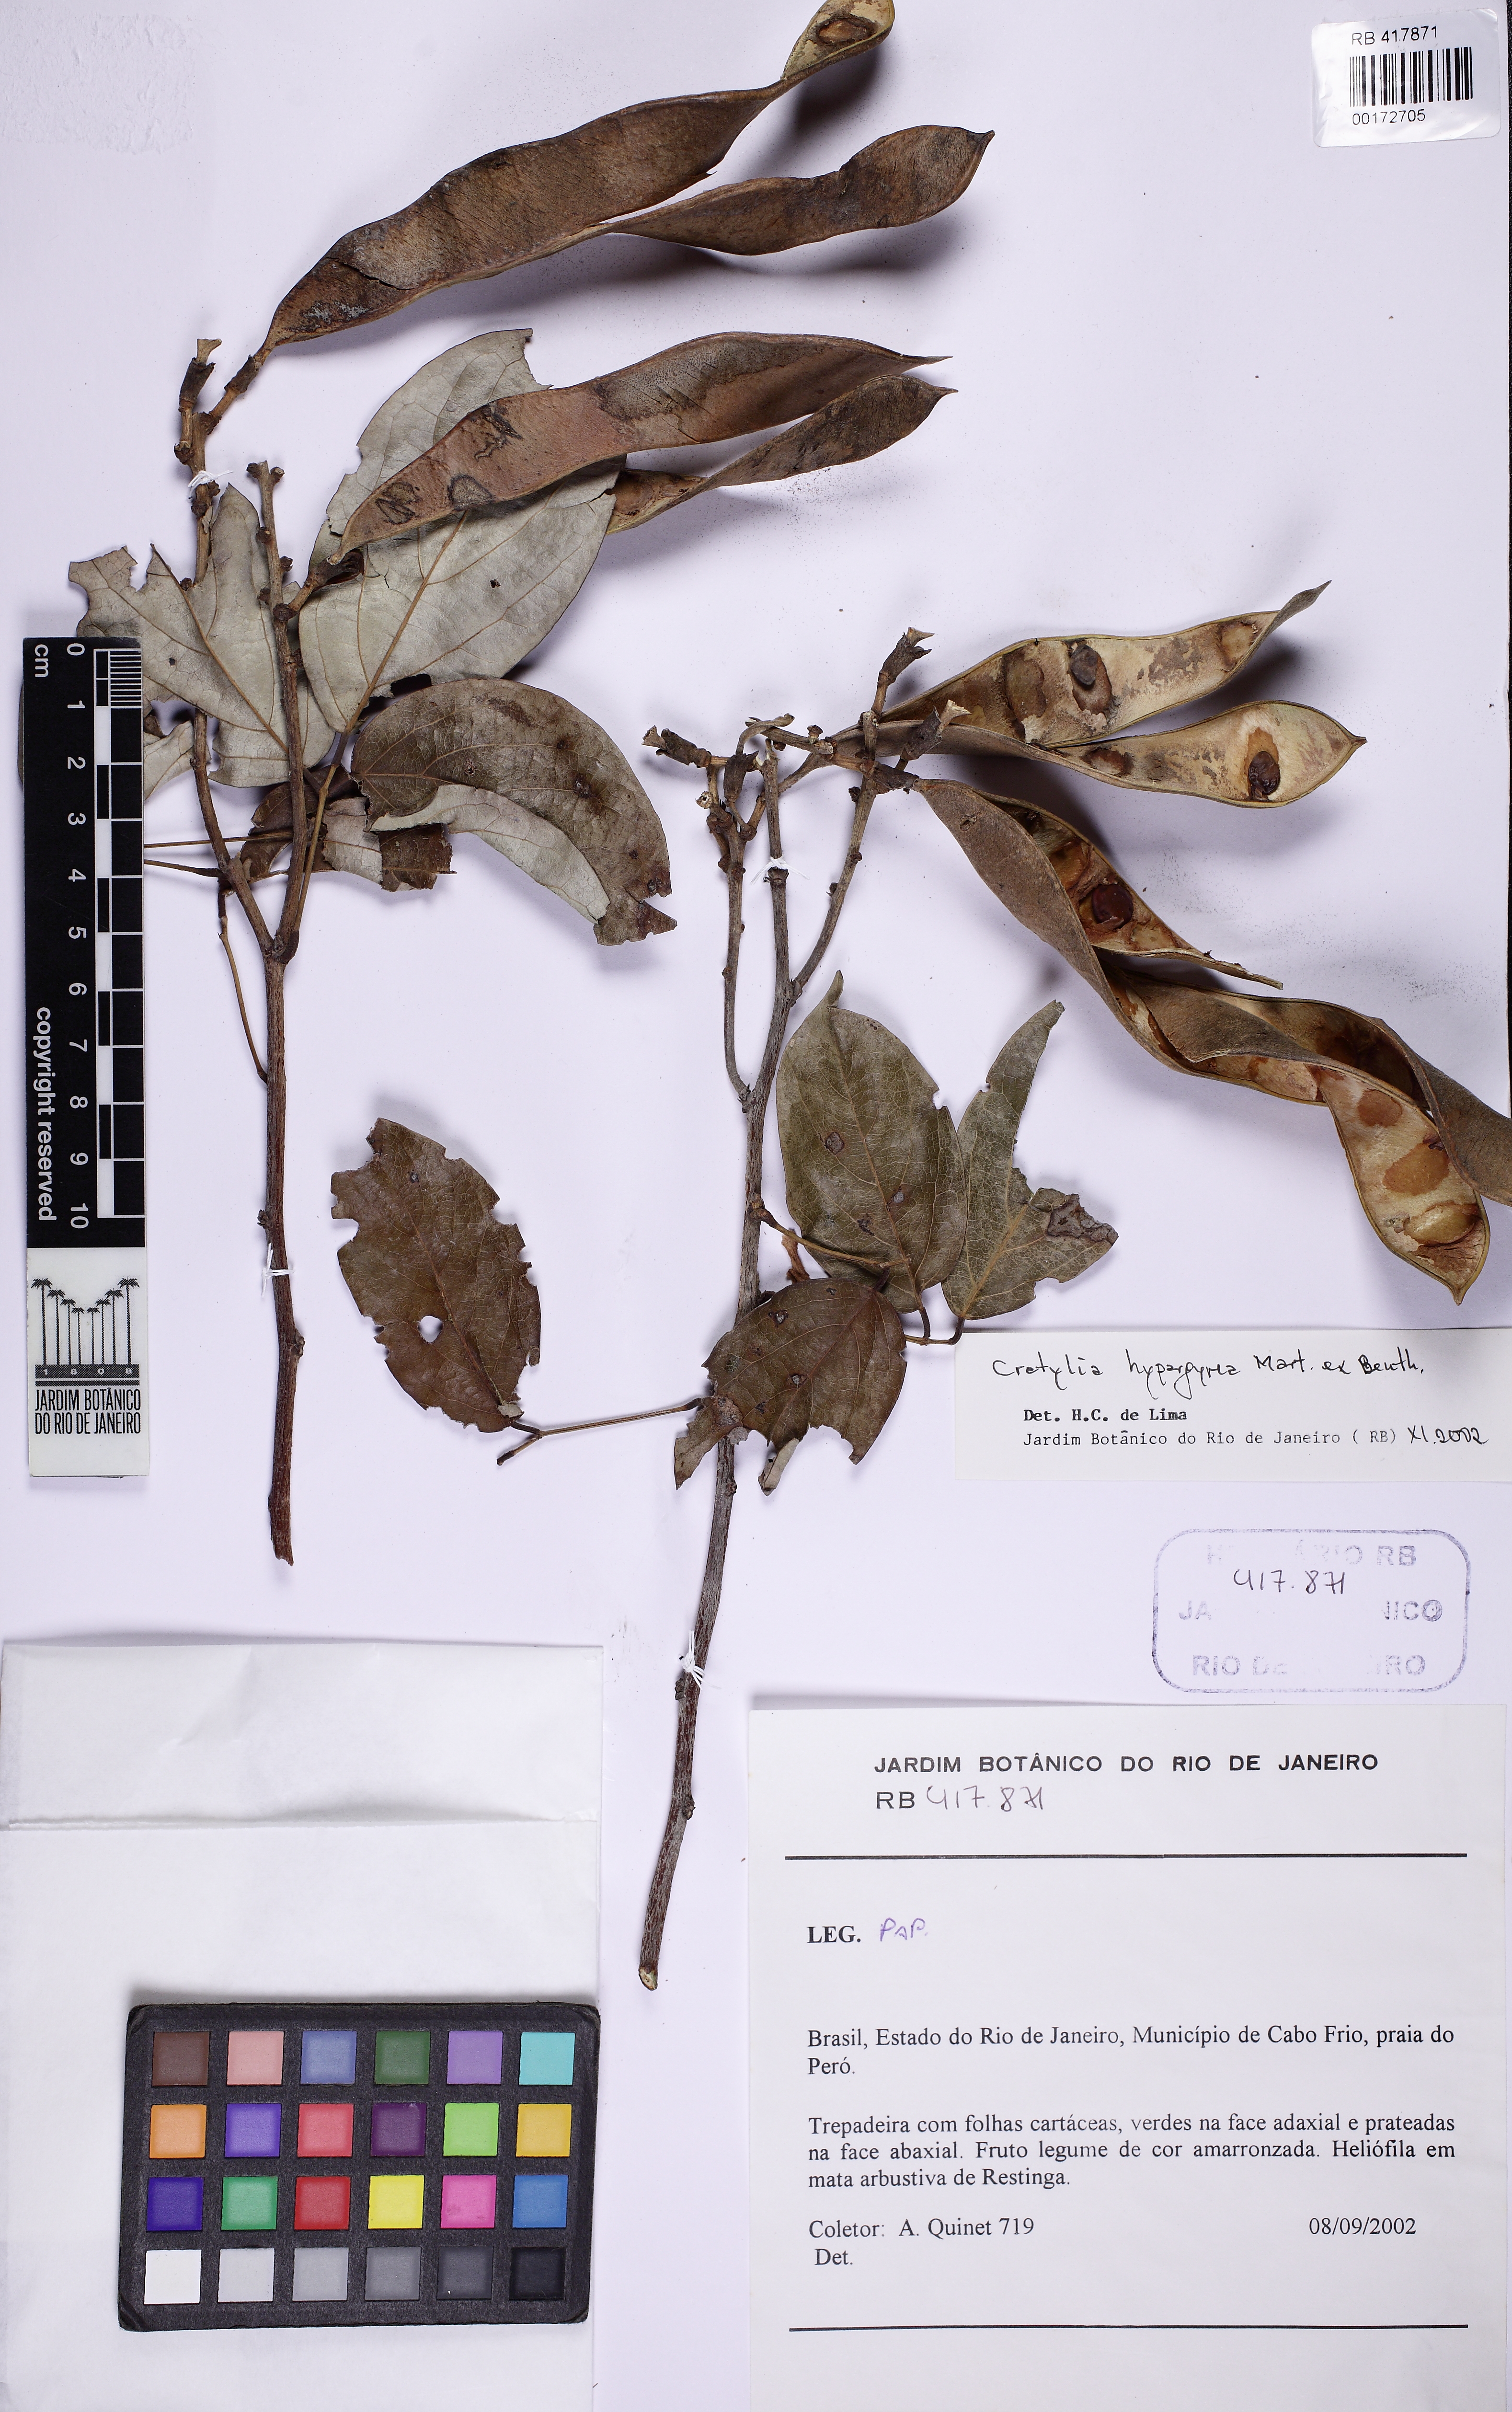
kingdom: Plantae
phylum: Tracheophyta
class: Magnoliopsida
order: Fabales
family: Fabaceae
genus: Cratylia
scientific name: Cratylia hypargyrea
